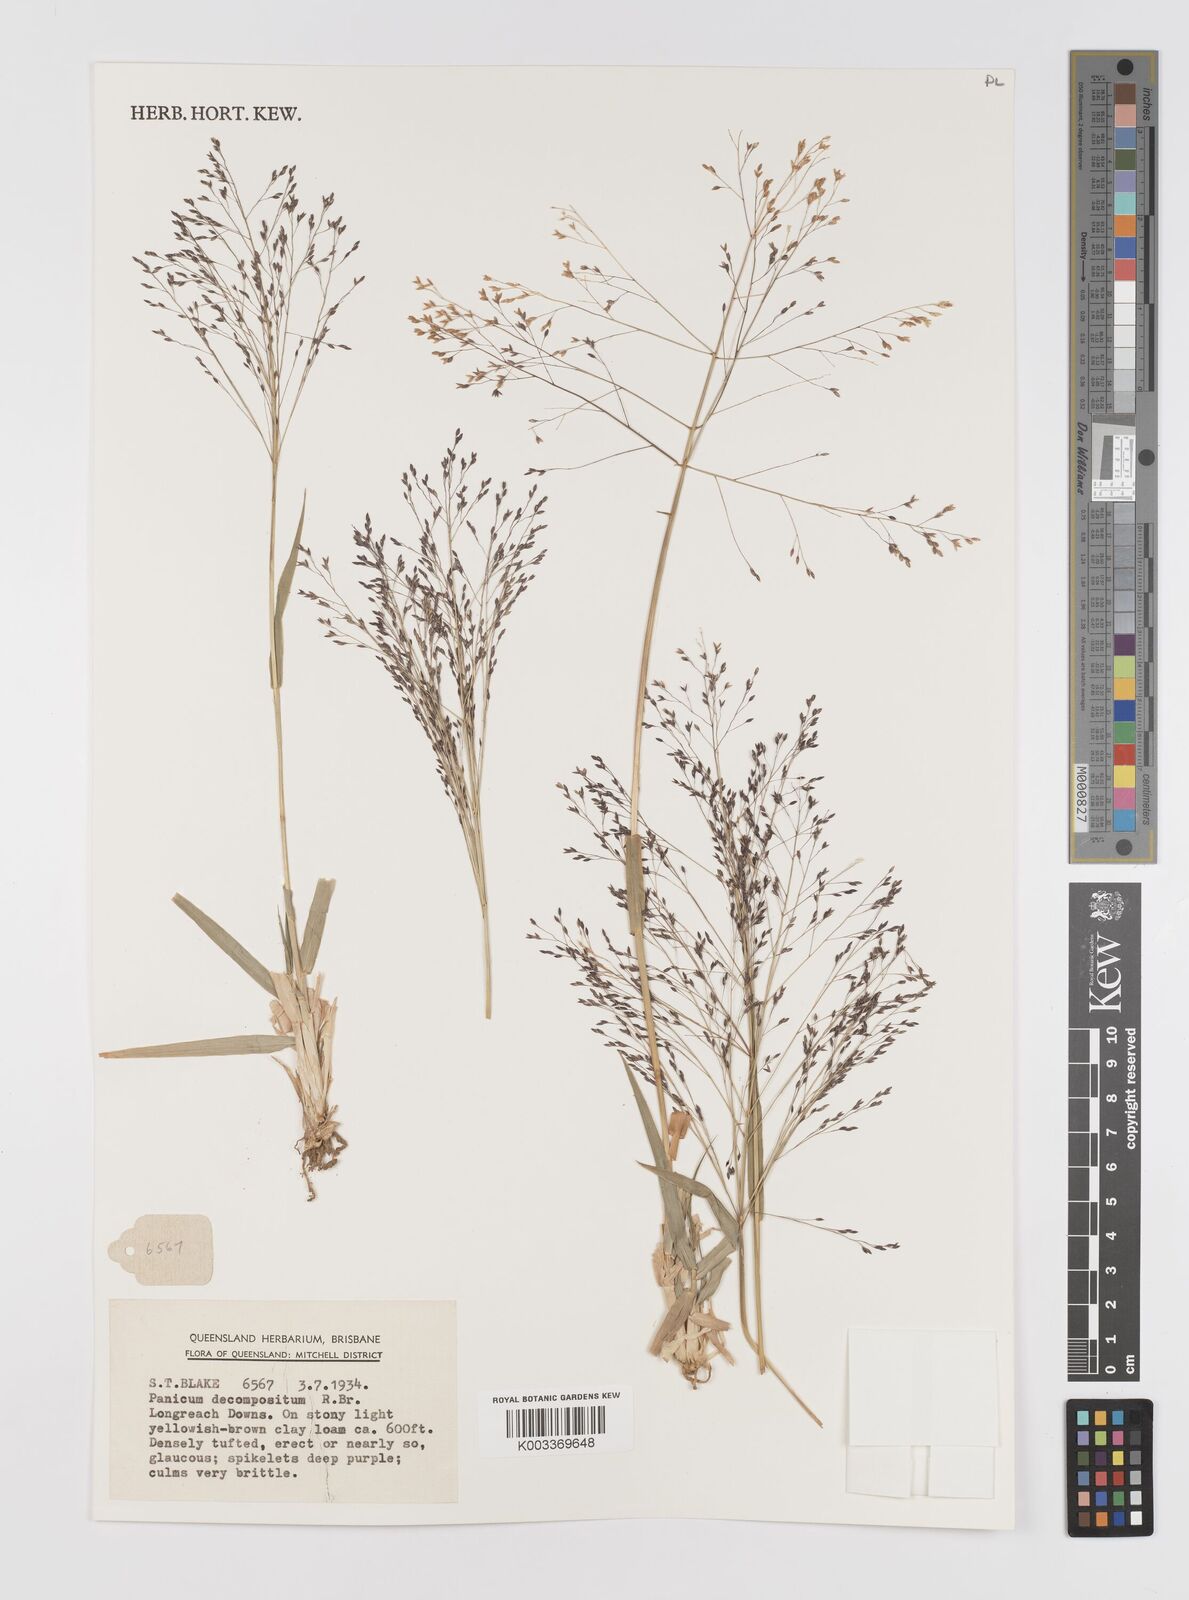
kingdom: Plantae
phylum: Tracheophyta
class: Liliopsida
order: Poales
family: Poaceae
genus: Panicum
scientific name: Panicum decompositum
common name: Australian millet
